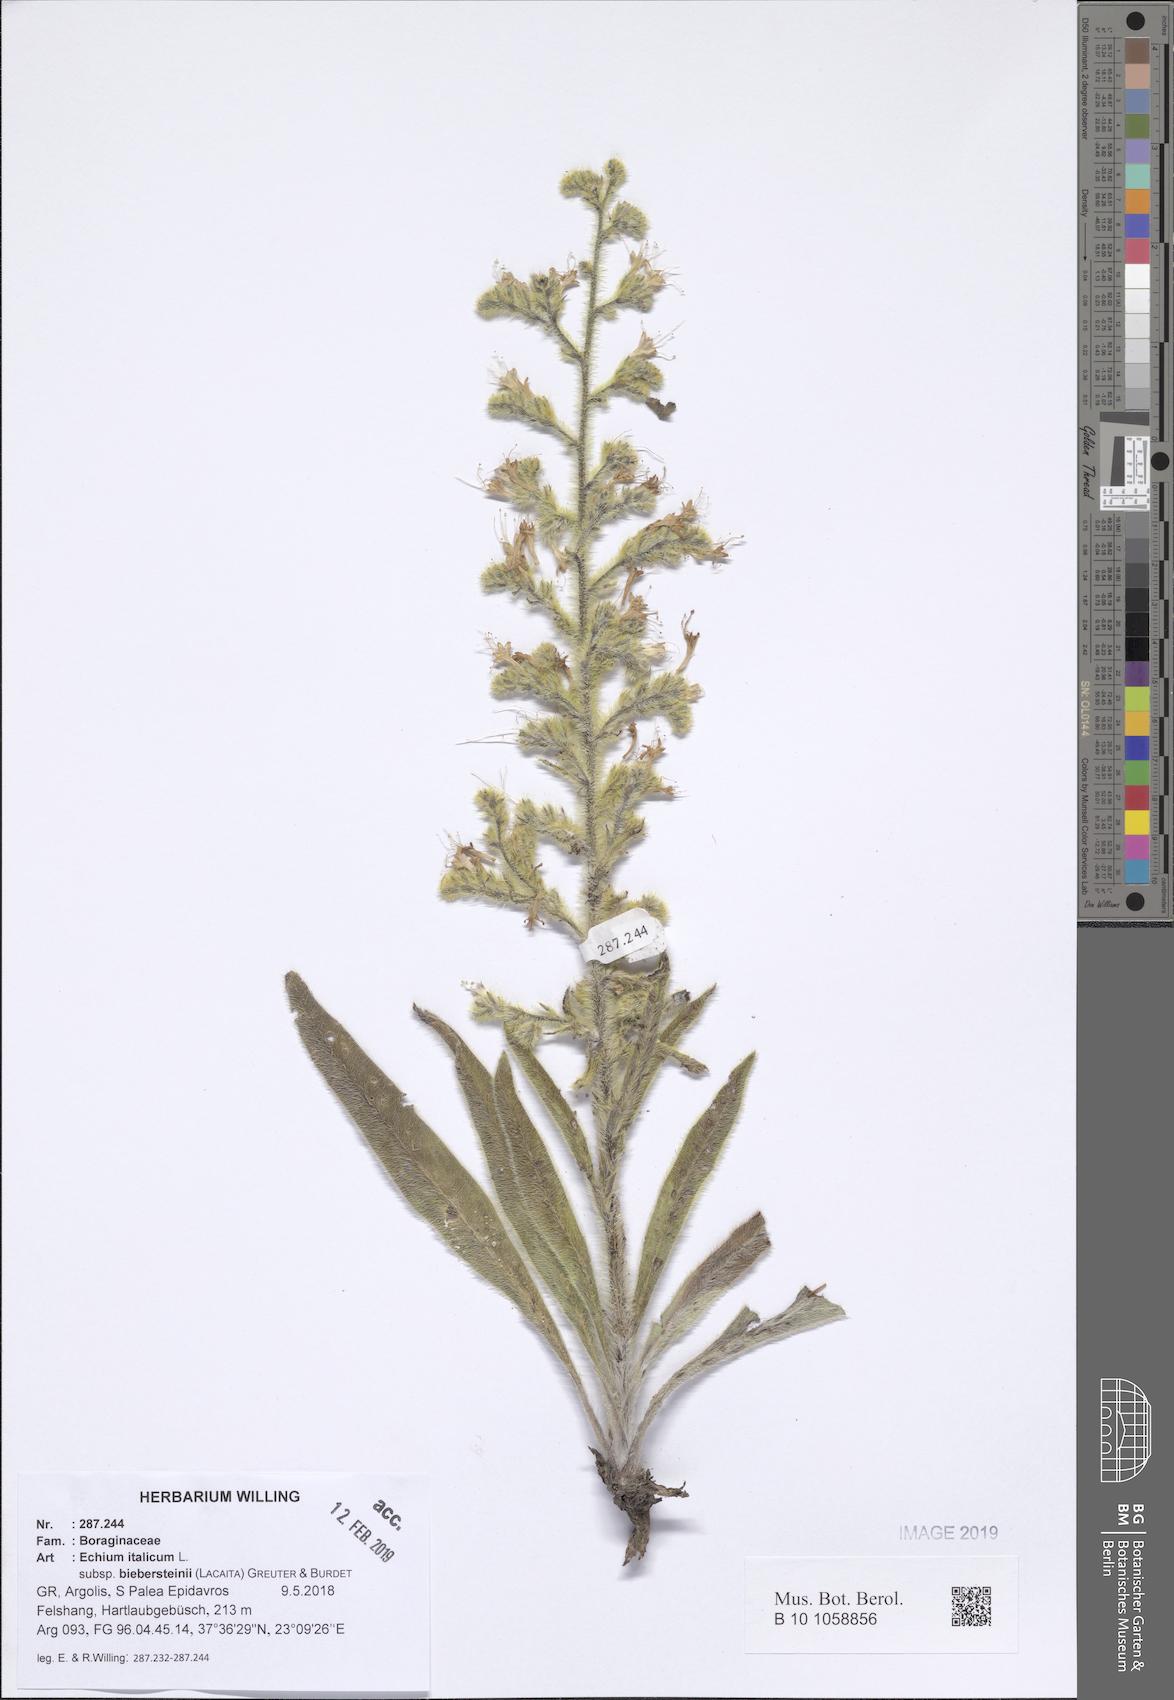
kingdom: Plantae
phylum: Tracheophyta
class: Magnoliopsida
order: Boraginales
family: Boraginaceae
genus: Echium
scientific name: Echium italicum
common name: Italian viper's bugloss
